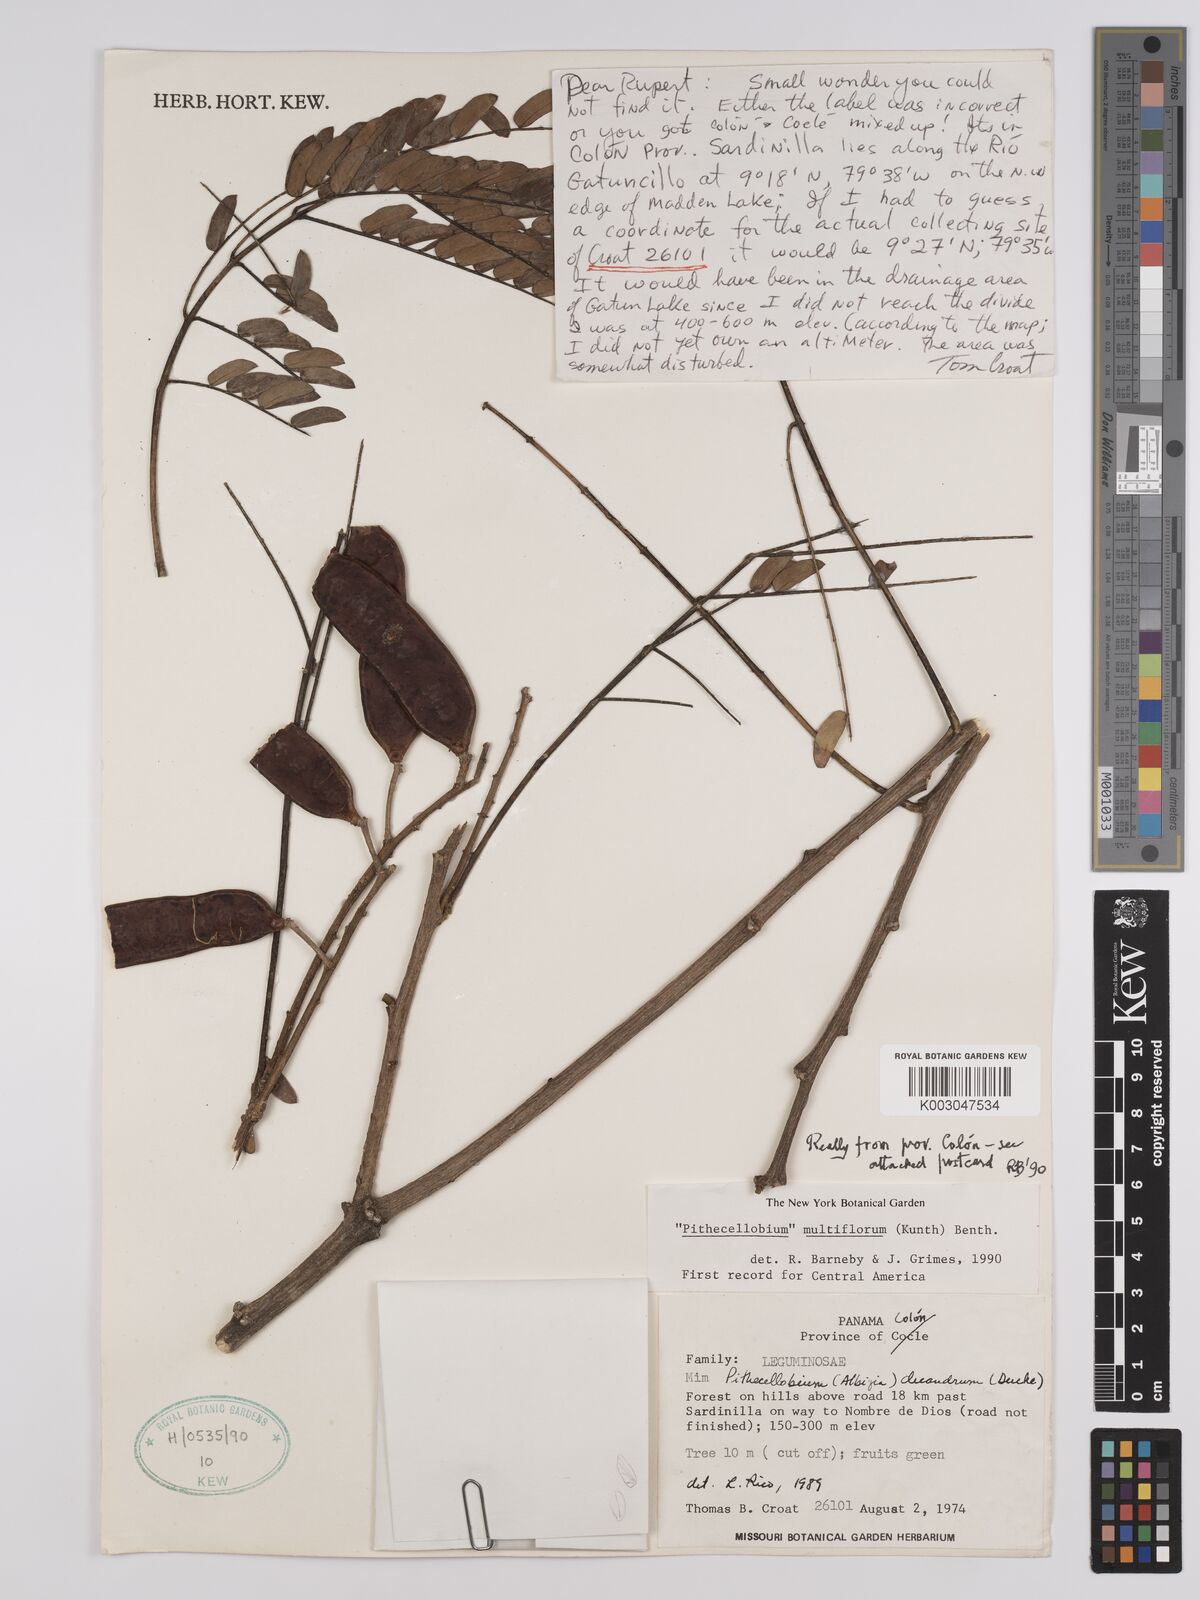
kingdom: Plantae
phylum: Tracheophyta
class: Magnoliopsida
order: Fabales
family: Fabaceae
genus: Albizia
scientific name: Albizia multiflora
